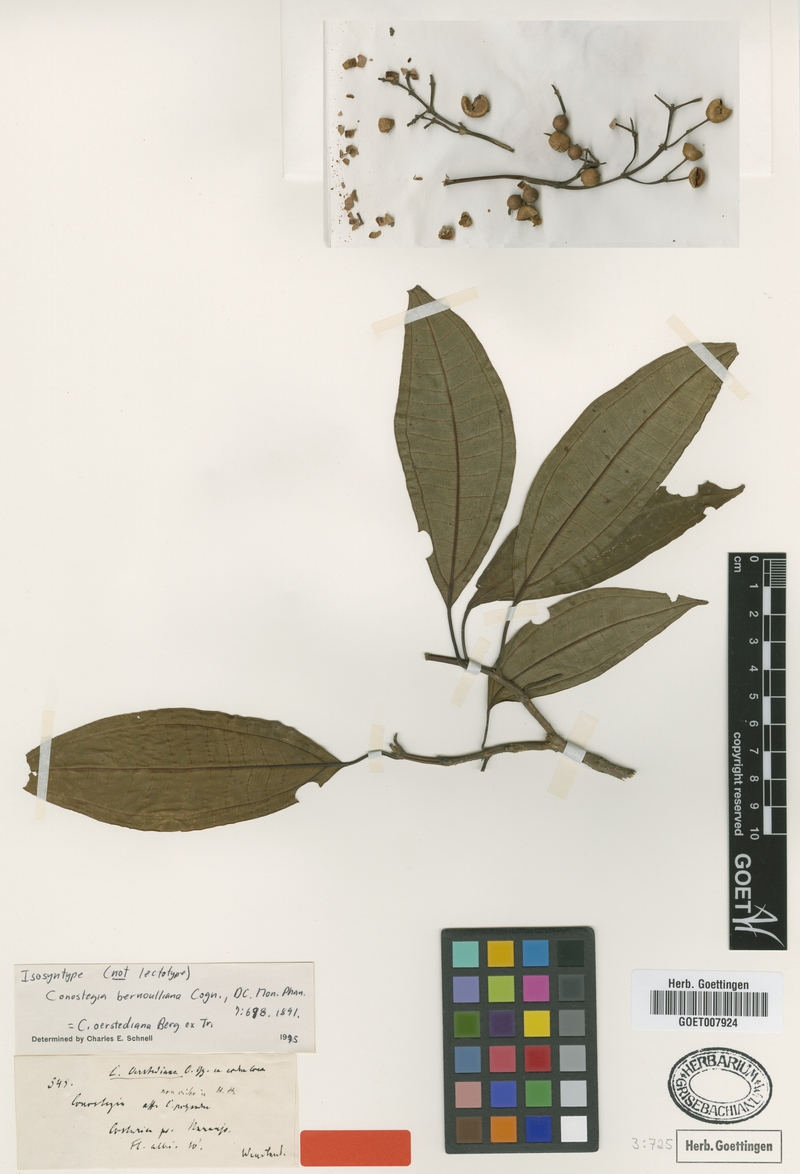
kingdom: Plantae
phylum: Tracheophyta
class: Magnoliopsida
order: Myrtales
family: Melastomataceae
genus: Miconia
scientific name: Miconia oerstediana
